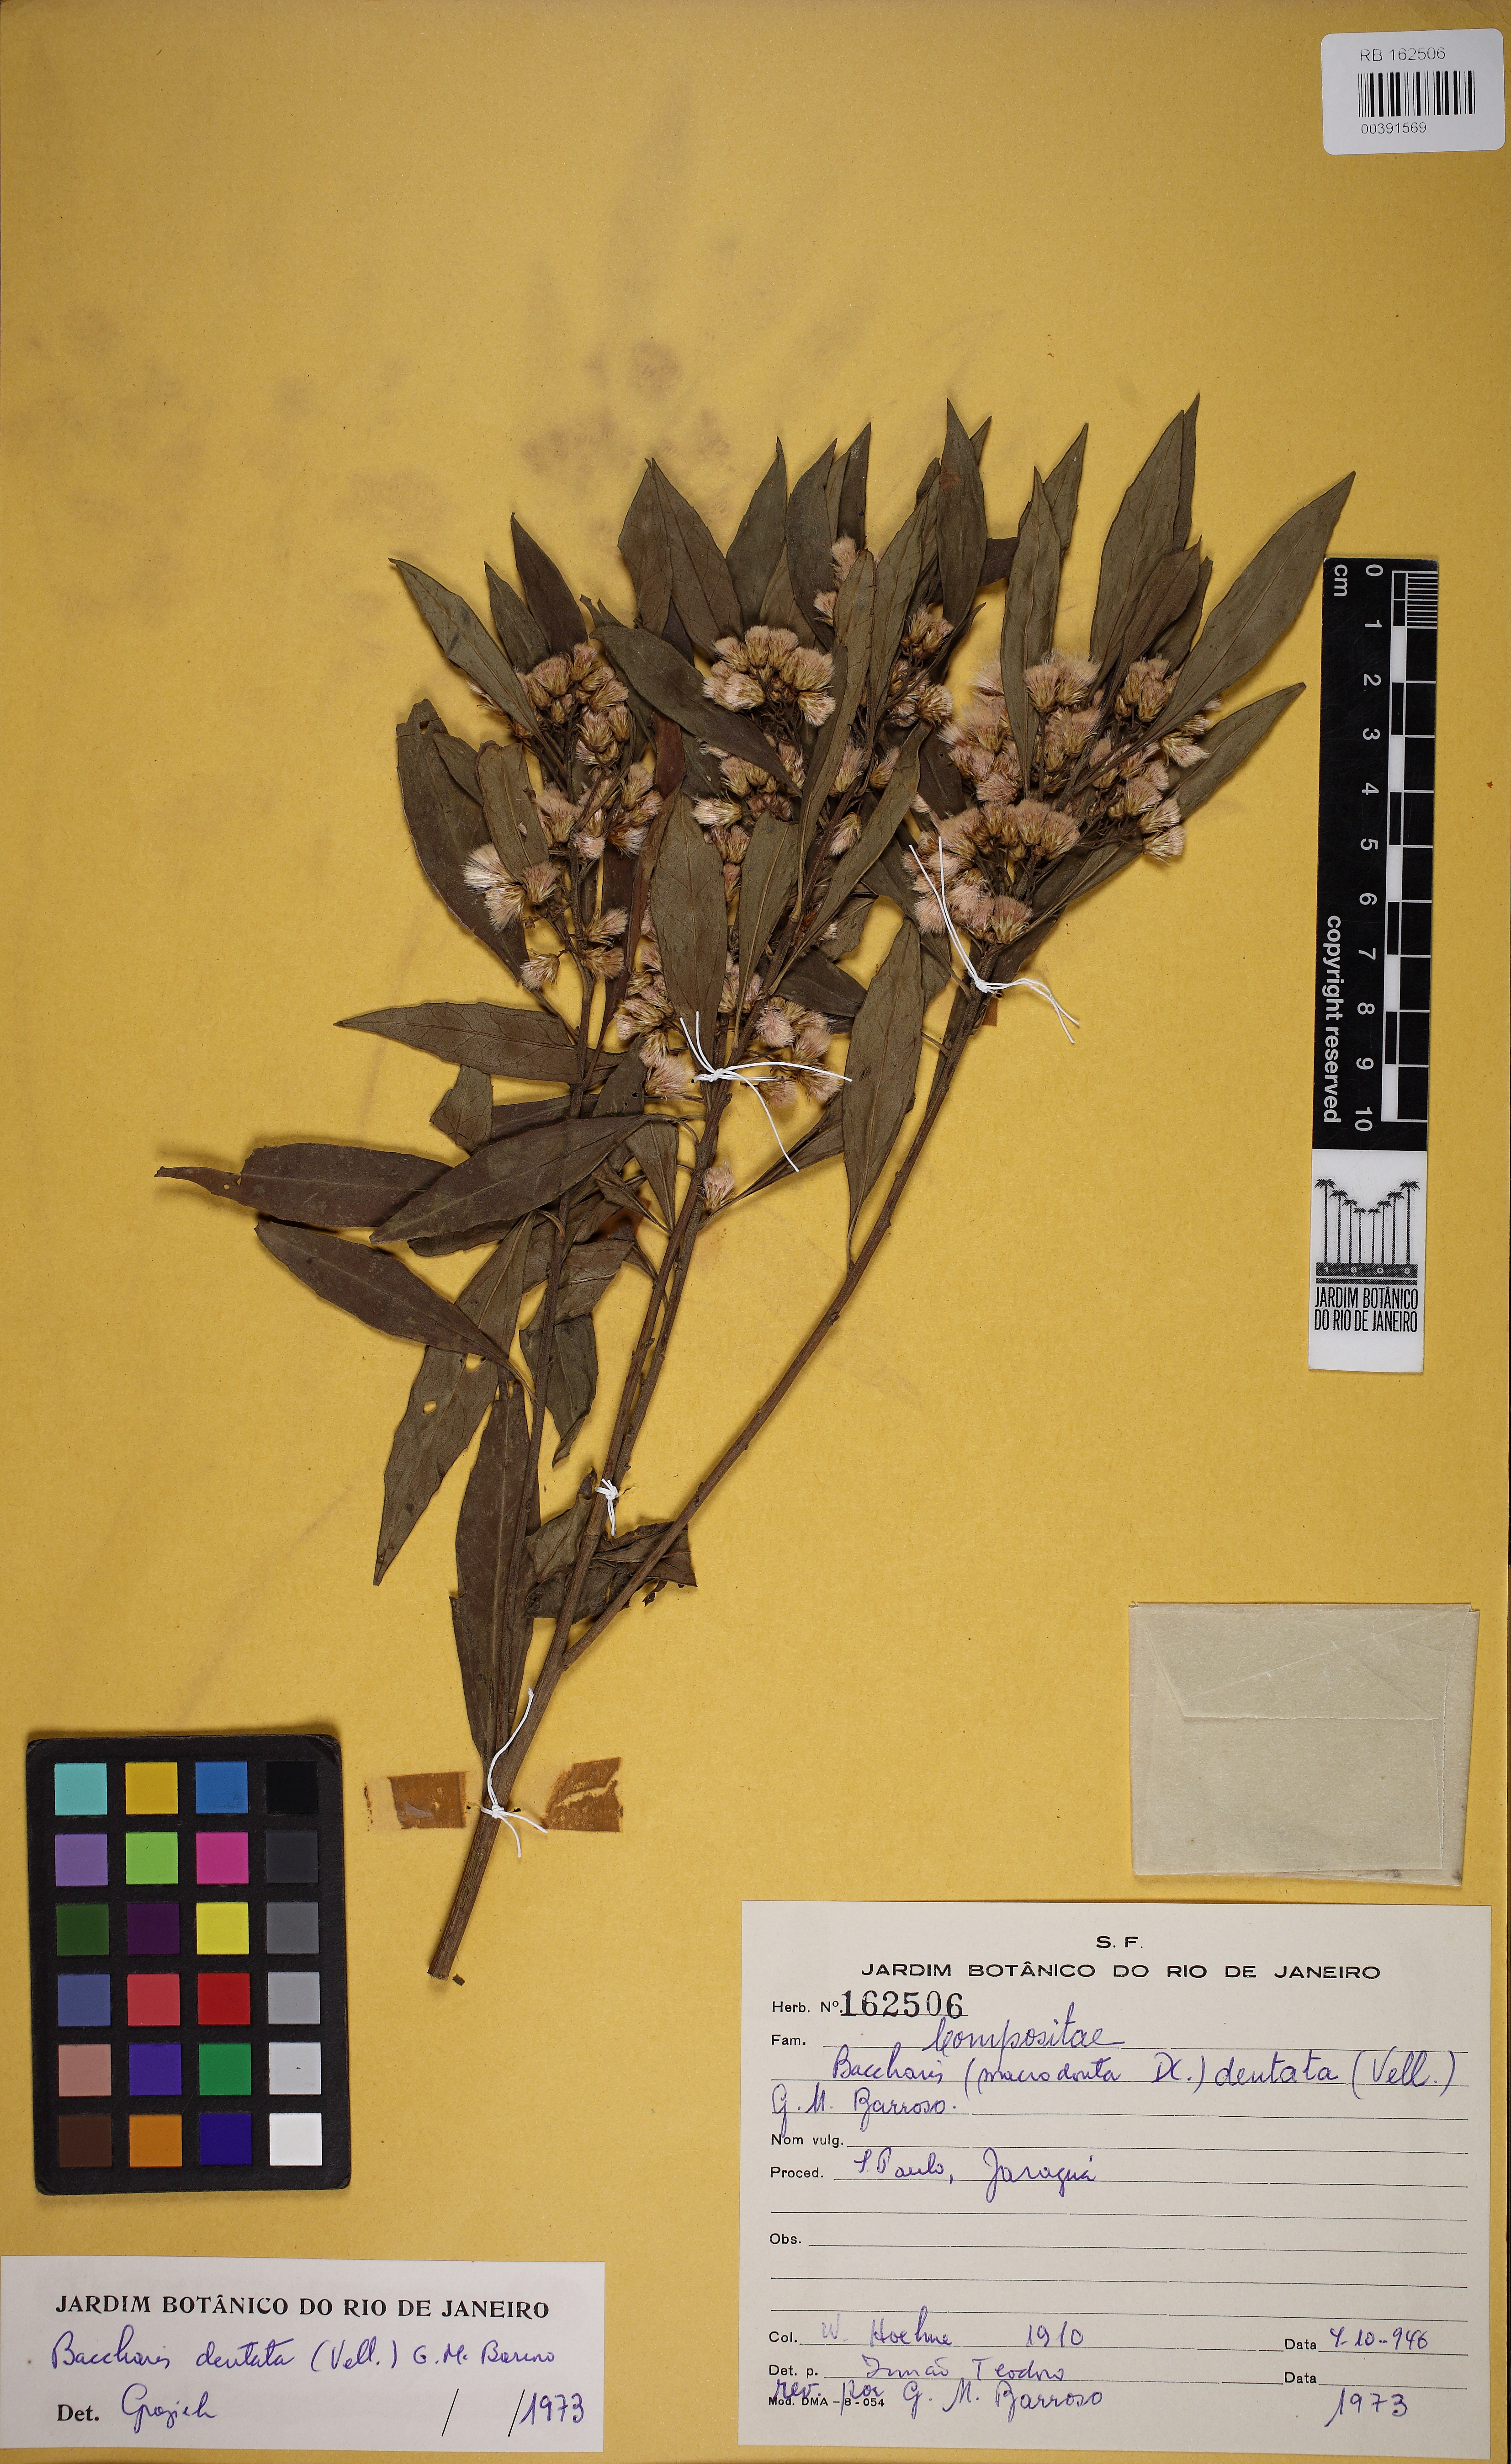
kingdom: Plantae
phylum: Tracheophyta
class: Magnoliopsida
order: Asterales
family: Asteraceae
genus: Baccharis
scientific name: Baccharis dentata
